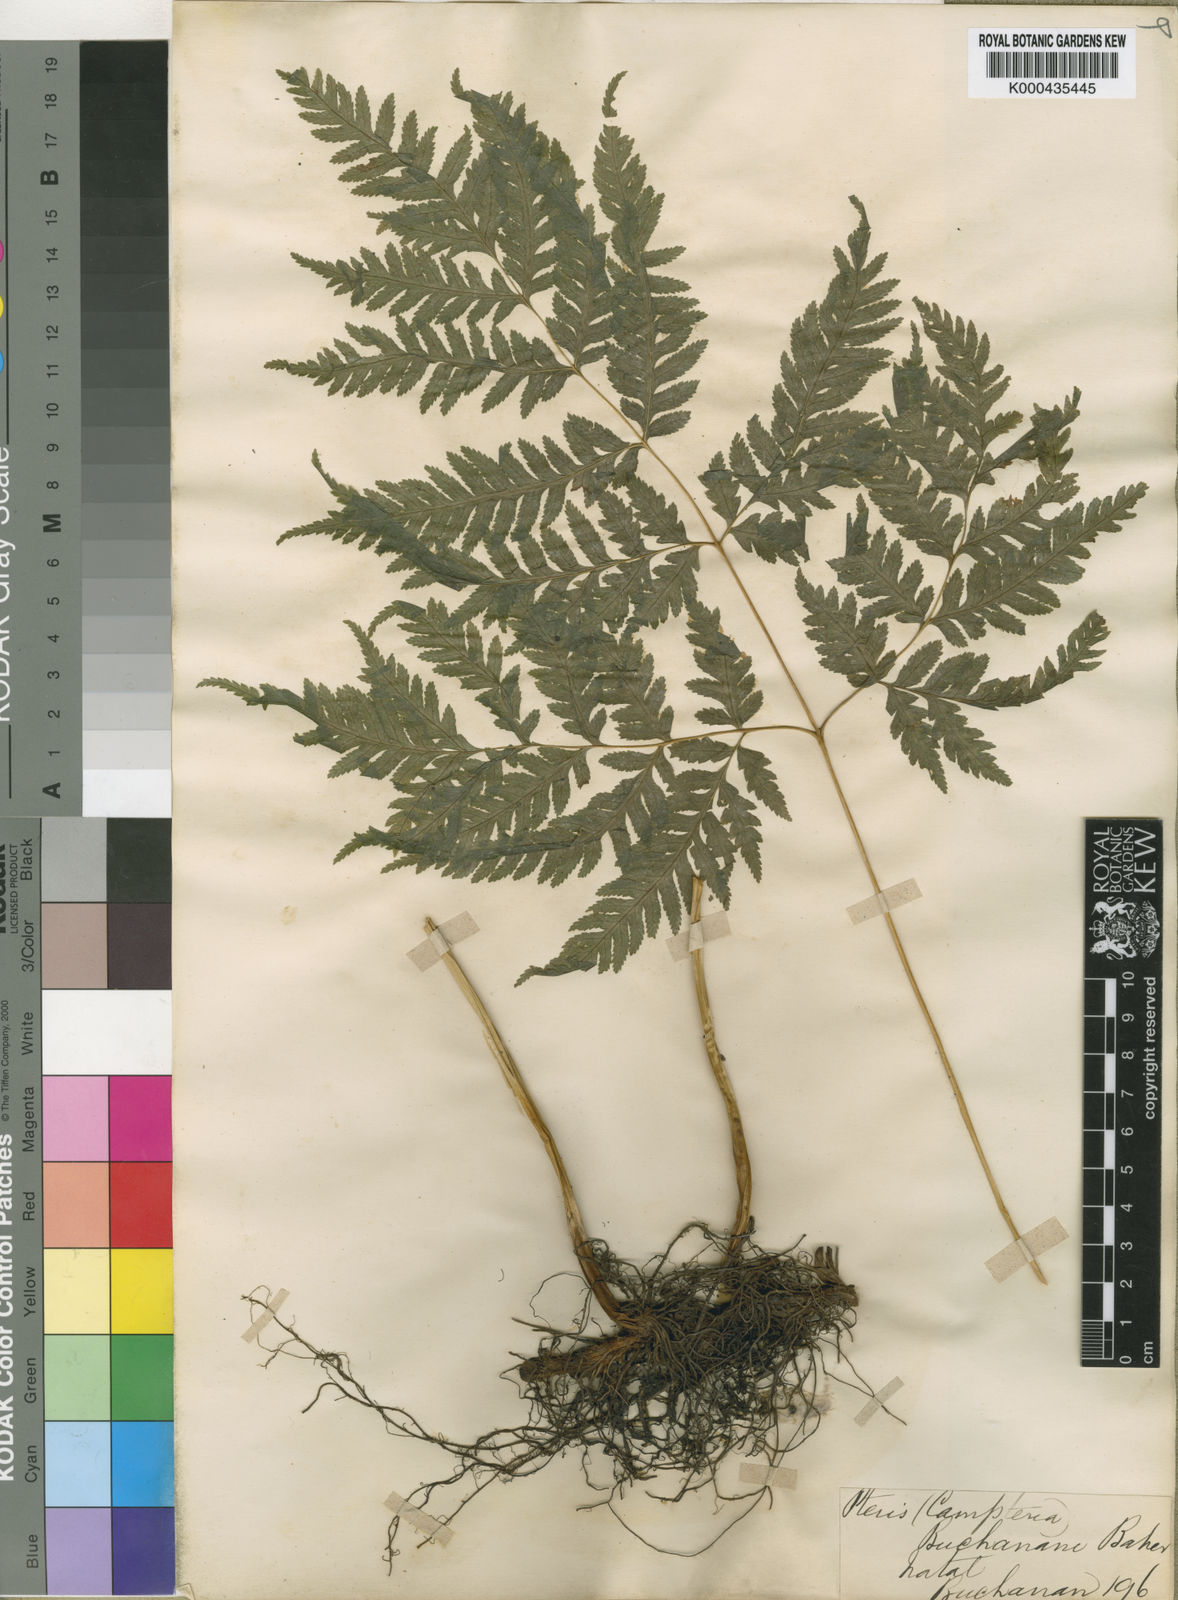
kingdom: Plantae
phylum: Tracheophyta
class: Polypodiopsida
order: Polypodiales
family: Pteridaceae
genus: Pteris
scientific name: Pteris
